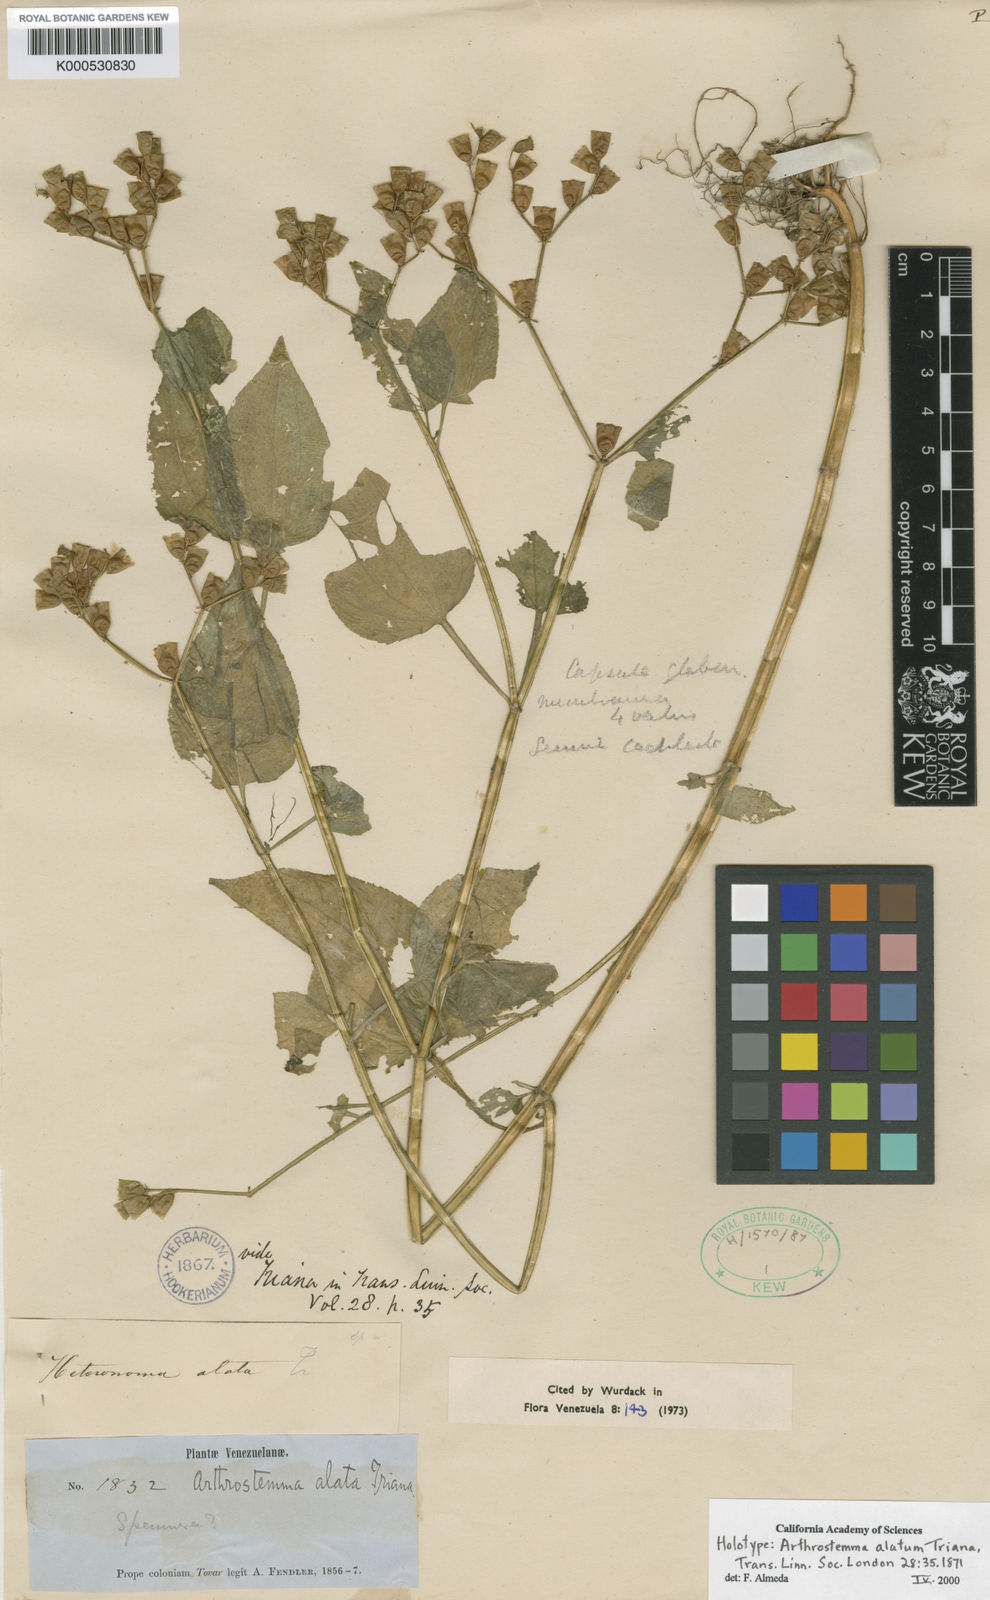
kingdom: Plantae
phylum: Tracheophyta
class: Magnoliopsida
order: Myrtales
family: Melastomataceae
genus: Arthrostemma
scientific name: Arthrostemma alatum
